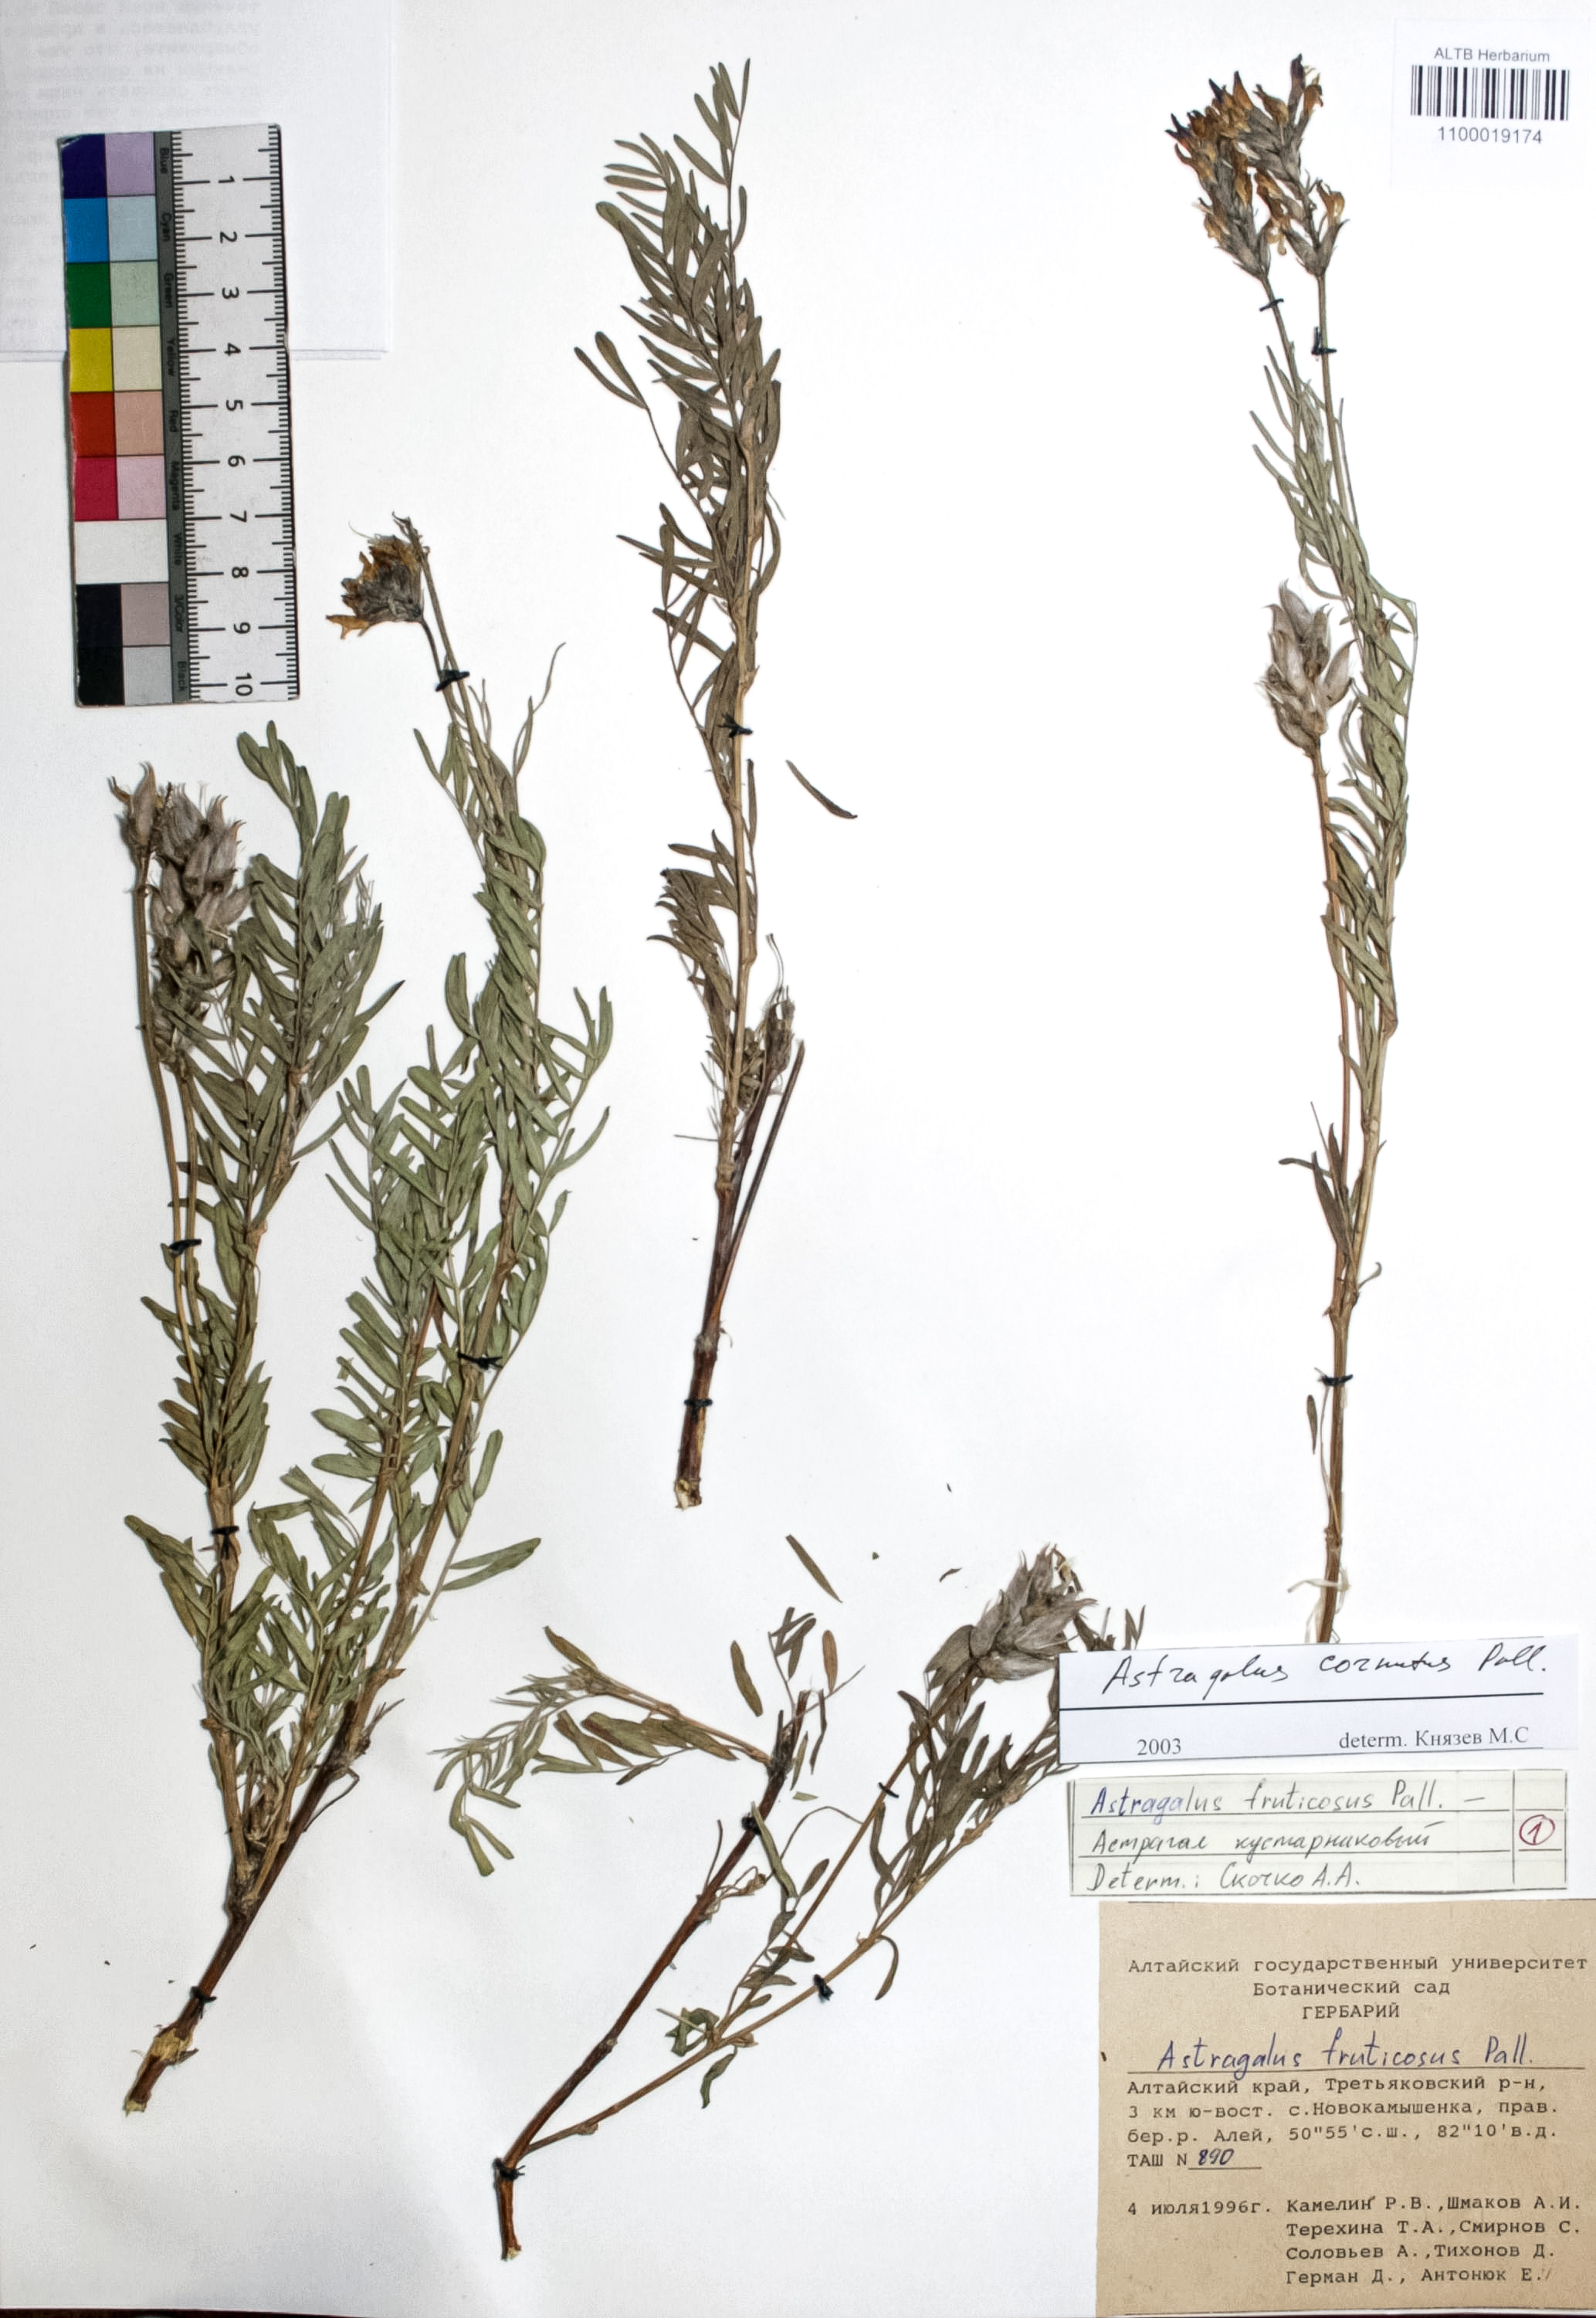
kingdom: Plantae
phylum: Tracheophyta
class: Magnoliopsida
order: Fabales
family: Fabaceae
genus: Astragalus
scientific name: Astragalus cornutus
